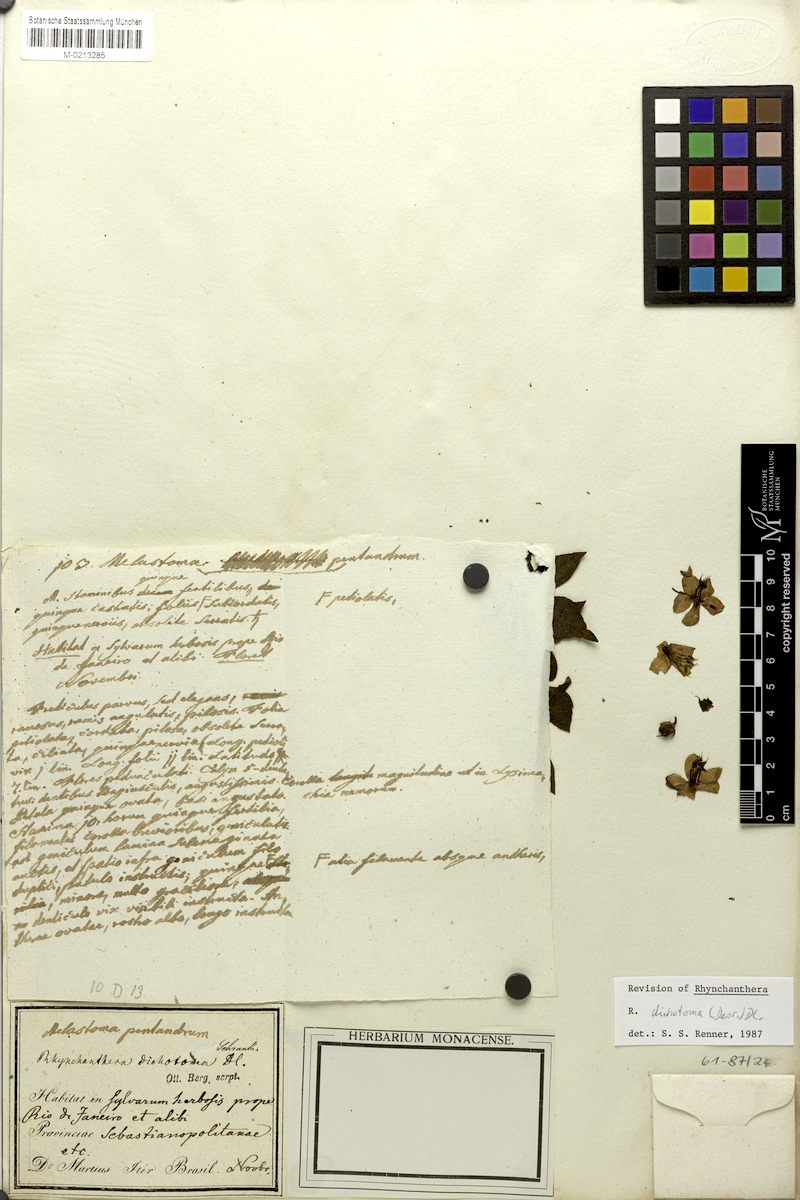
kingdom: Plantae
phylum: Tracheophyta
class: Magnoliopsida
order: Myrtales
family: Melastomataceae
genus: Rhynchanthera
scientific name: Rhynchanthera dichotoma
